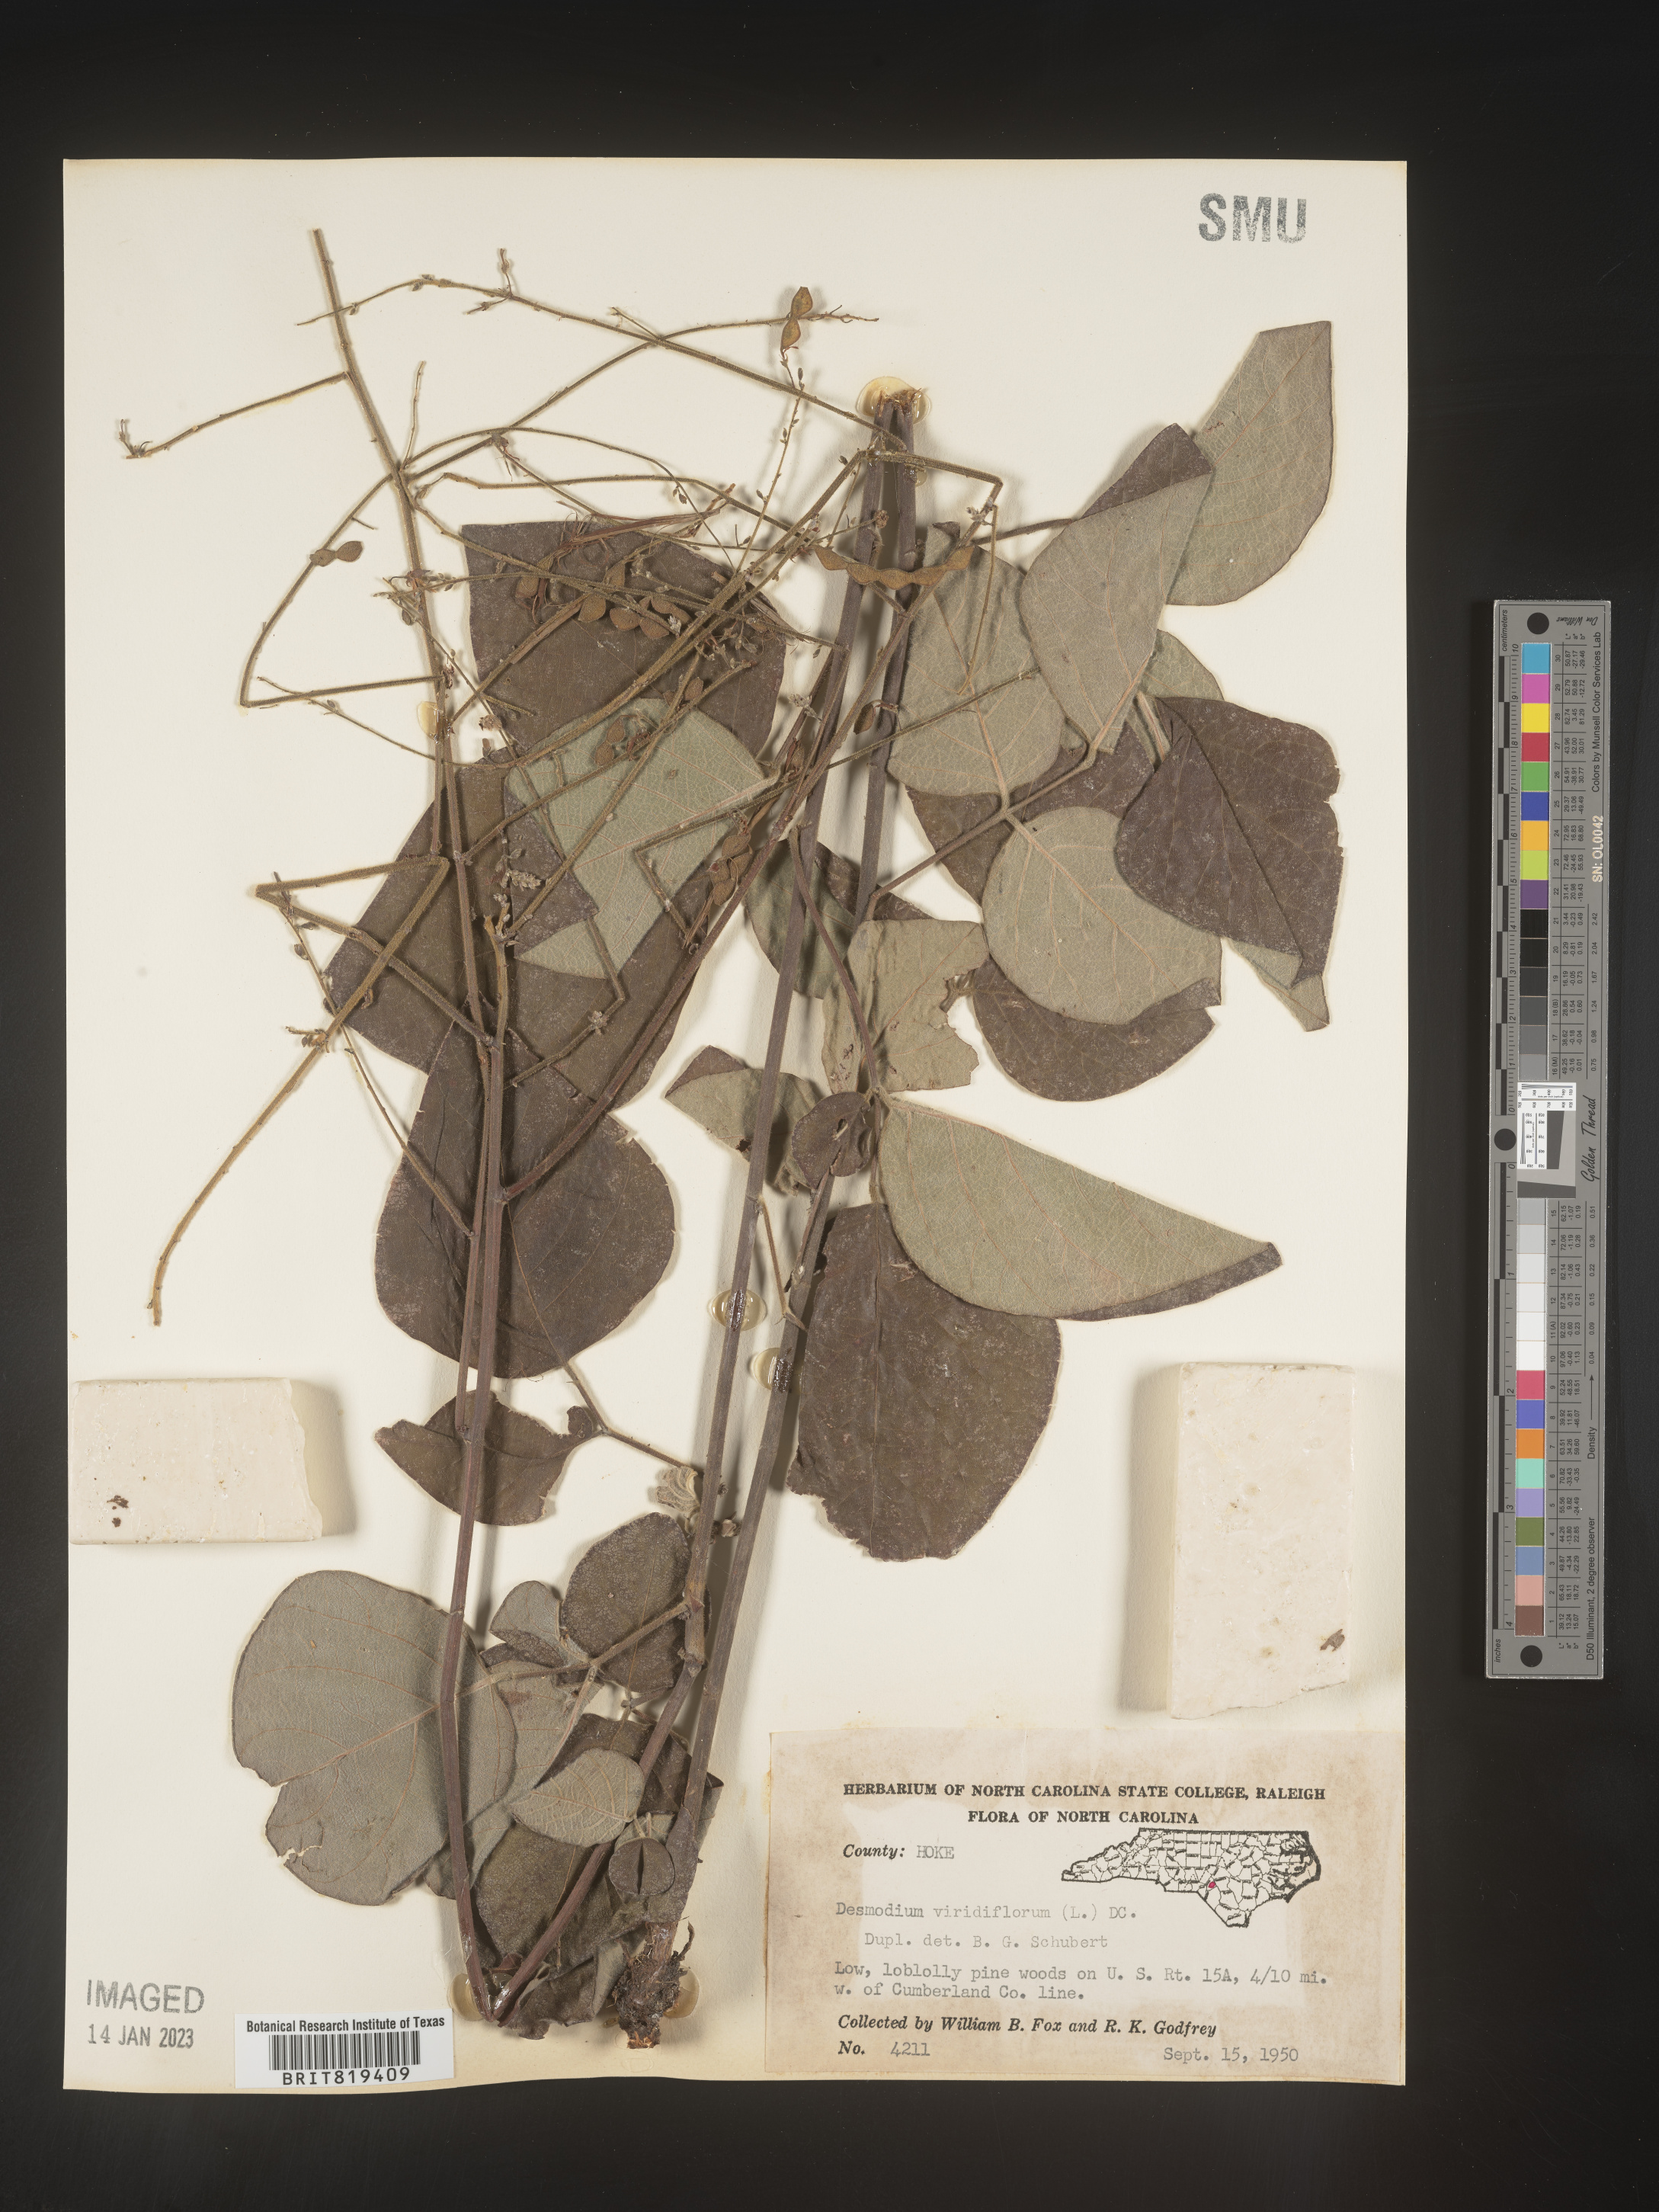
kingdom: Plantae
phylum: Tracheophyta
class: Magnoliopsida
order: Fabales
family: Fabaceae
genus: Desmodium
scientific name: Desmodium viridiflorum
